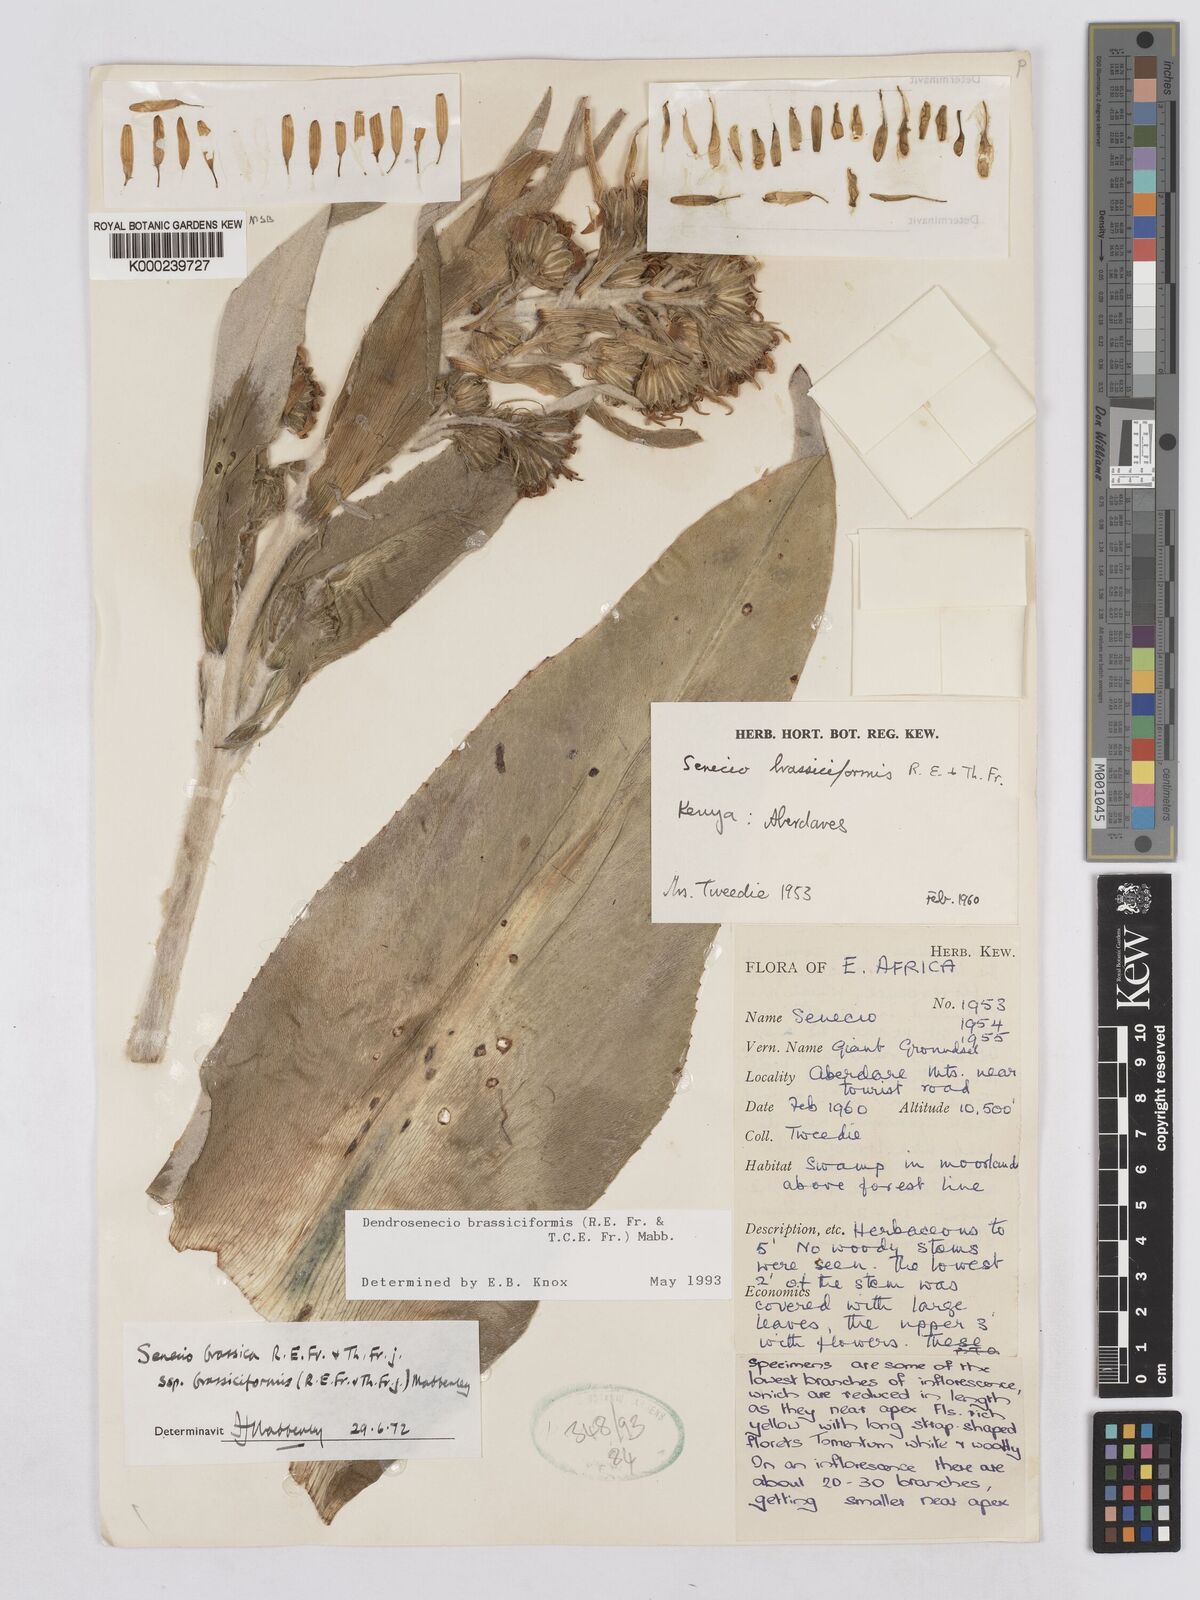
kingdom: Plantae
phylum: Tracheophyta
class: Magnoliopsida
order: Asterales
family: Asteraceae
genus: Dendrosenecio
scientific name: Dendrosenecio brassiciformis
